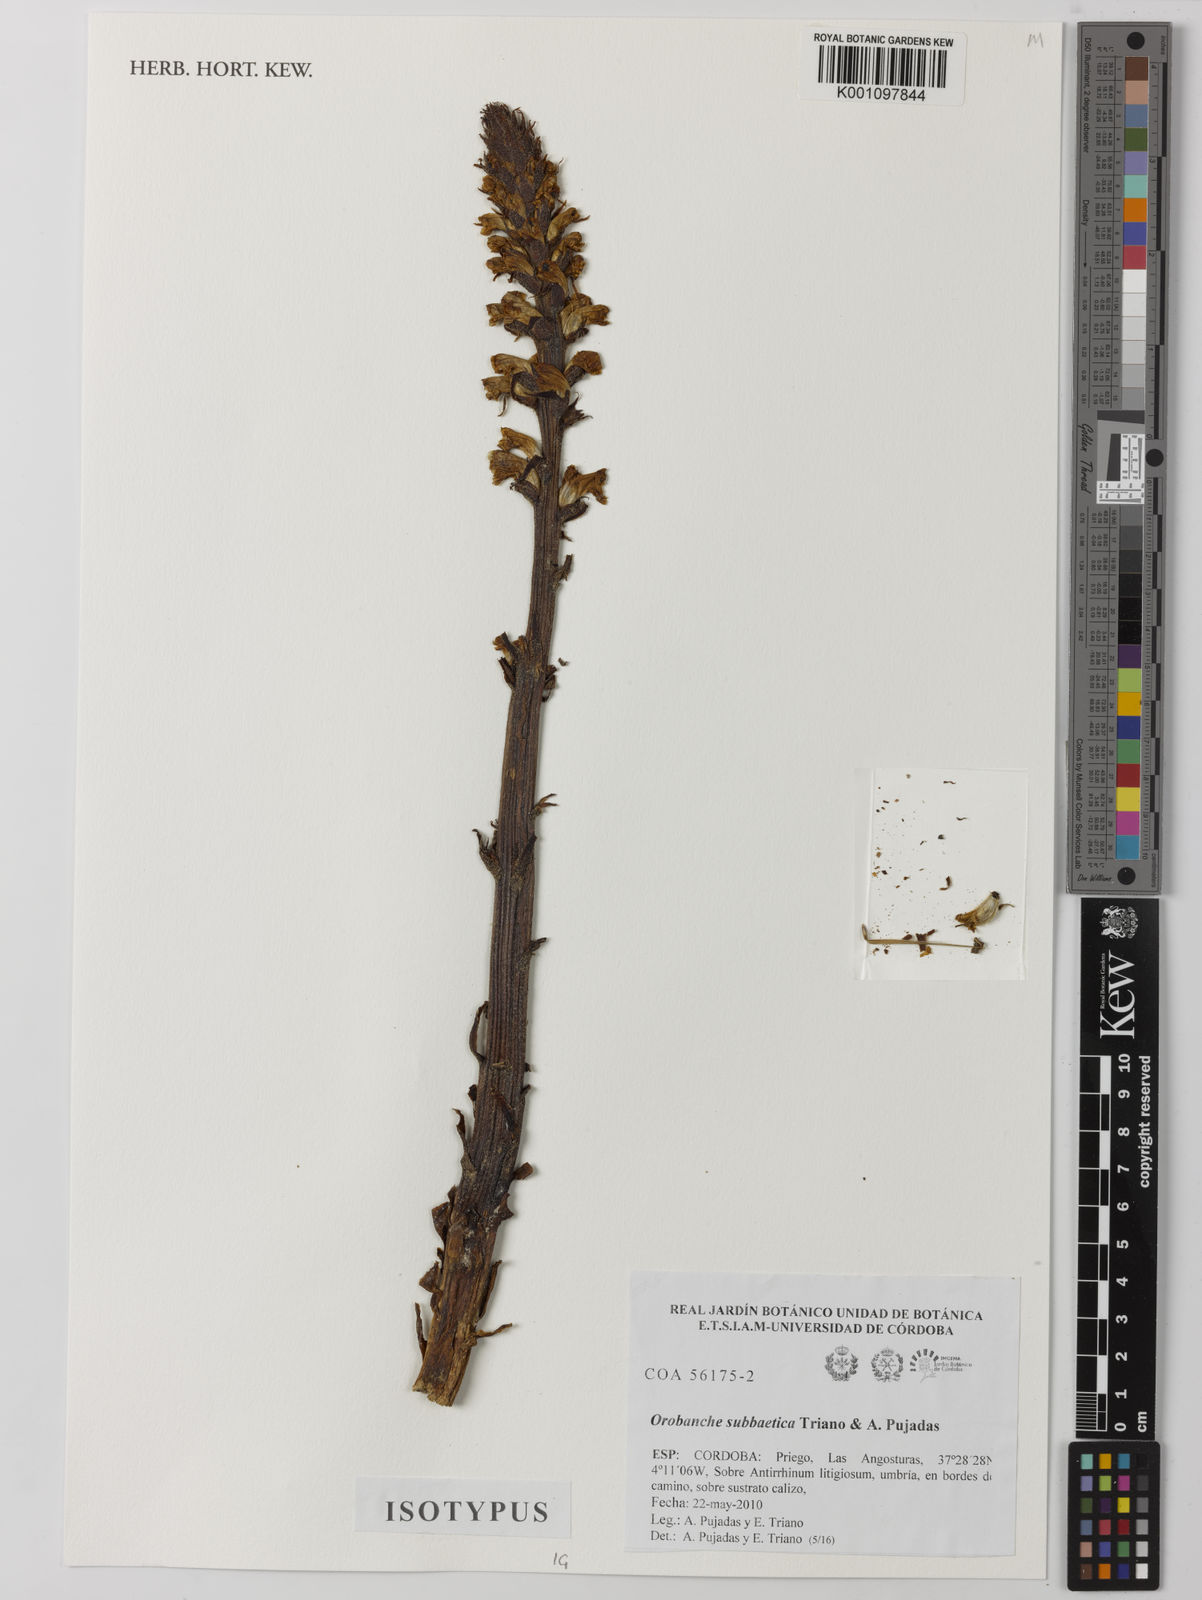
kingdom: Plantae
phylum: Tracheophyta
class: Magnoliopsida
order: Lamiales
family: Orobanchaceae
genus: Orobanche
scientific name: Orobanche
